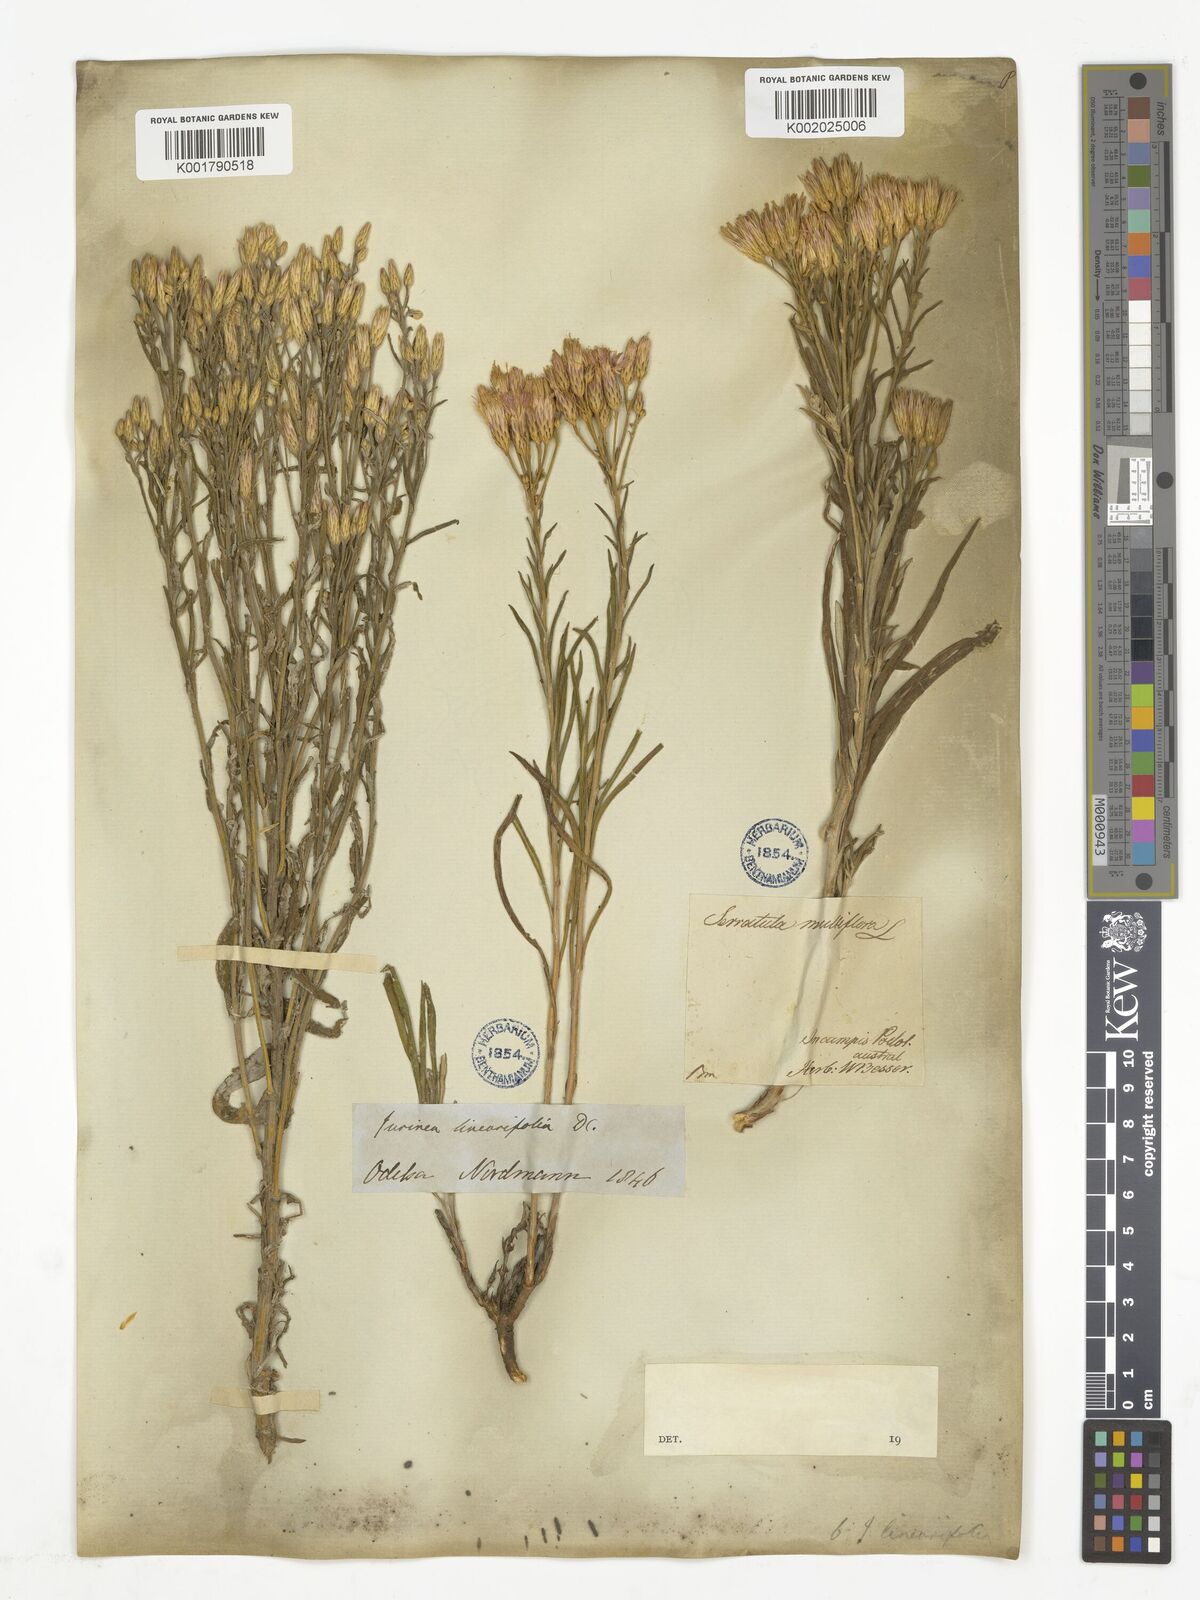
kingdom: Plantae
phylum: Tracheophyta
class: Magnoliopsida
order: Asterales
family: Asteraceae
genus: Cyanthillium
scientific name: Cyanthillium patulum
